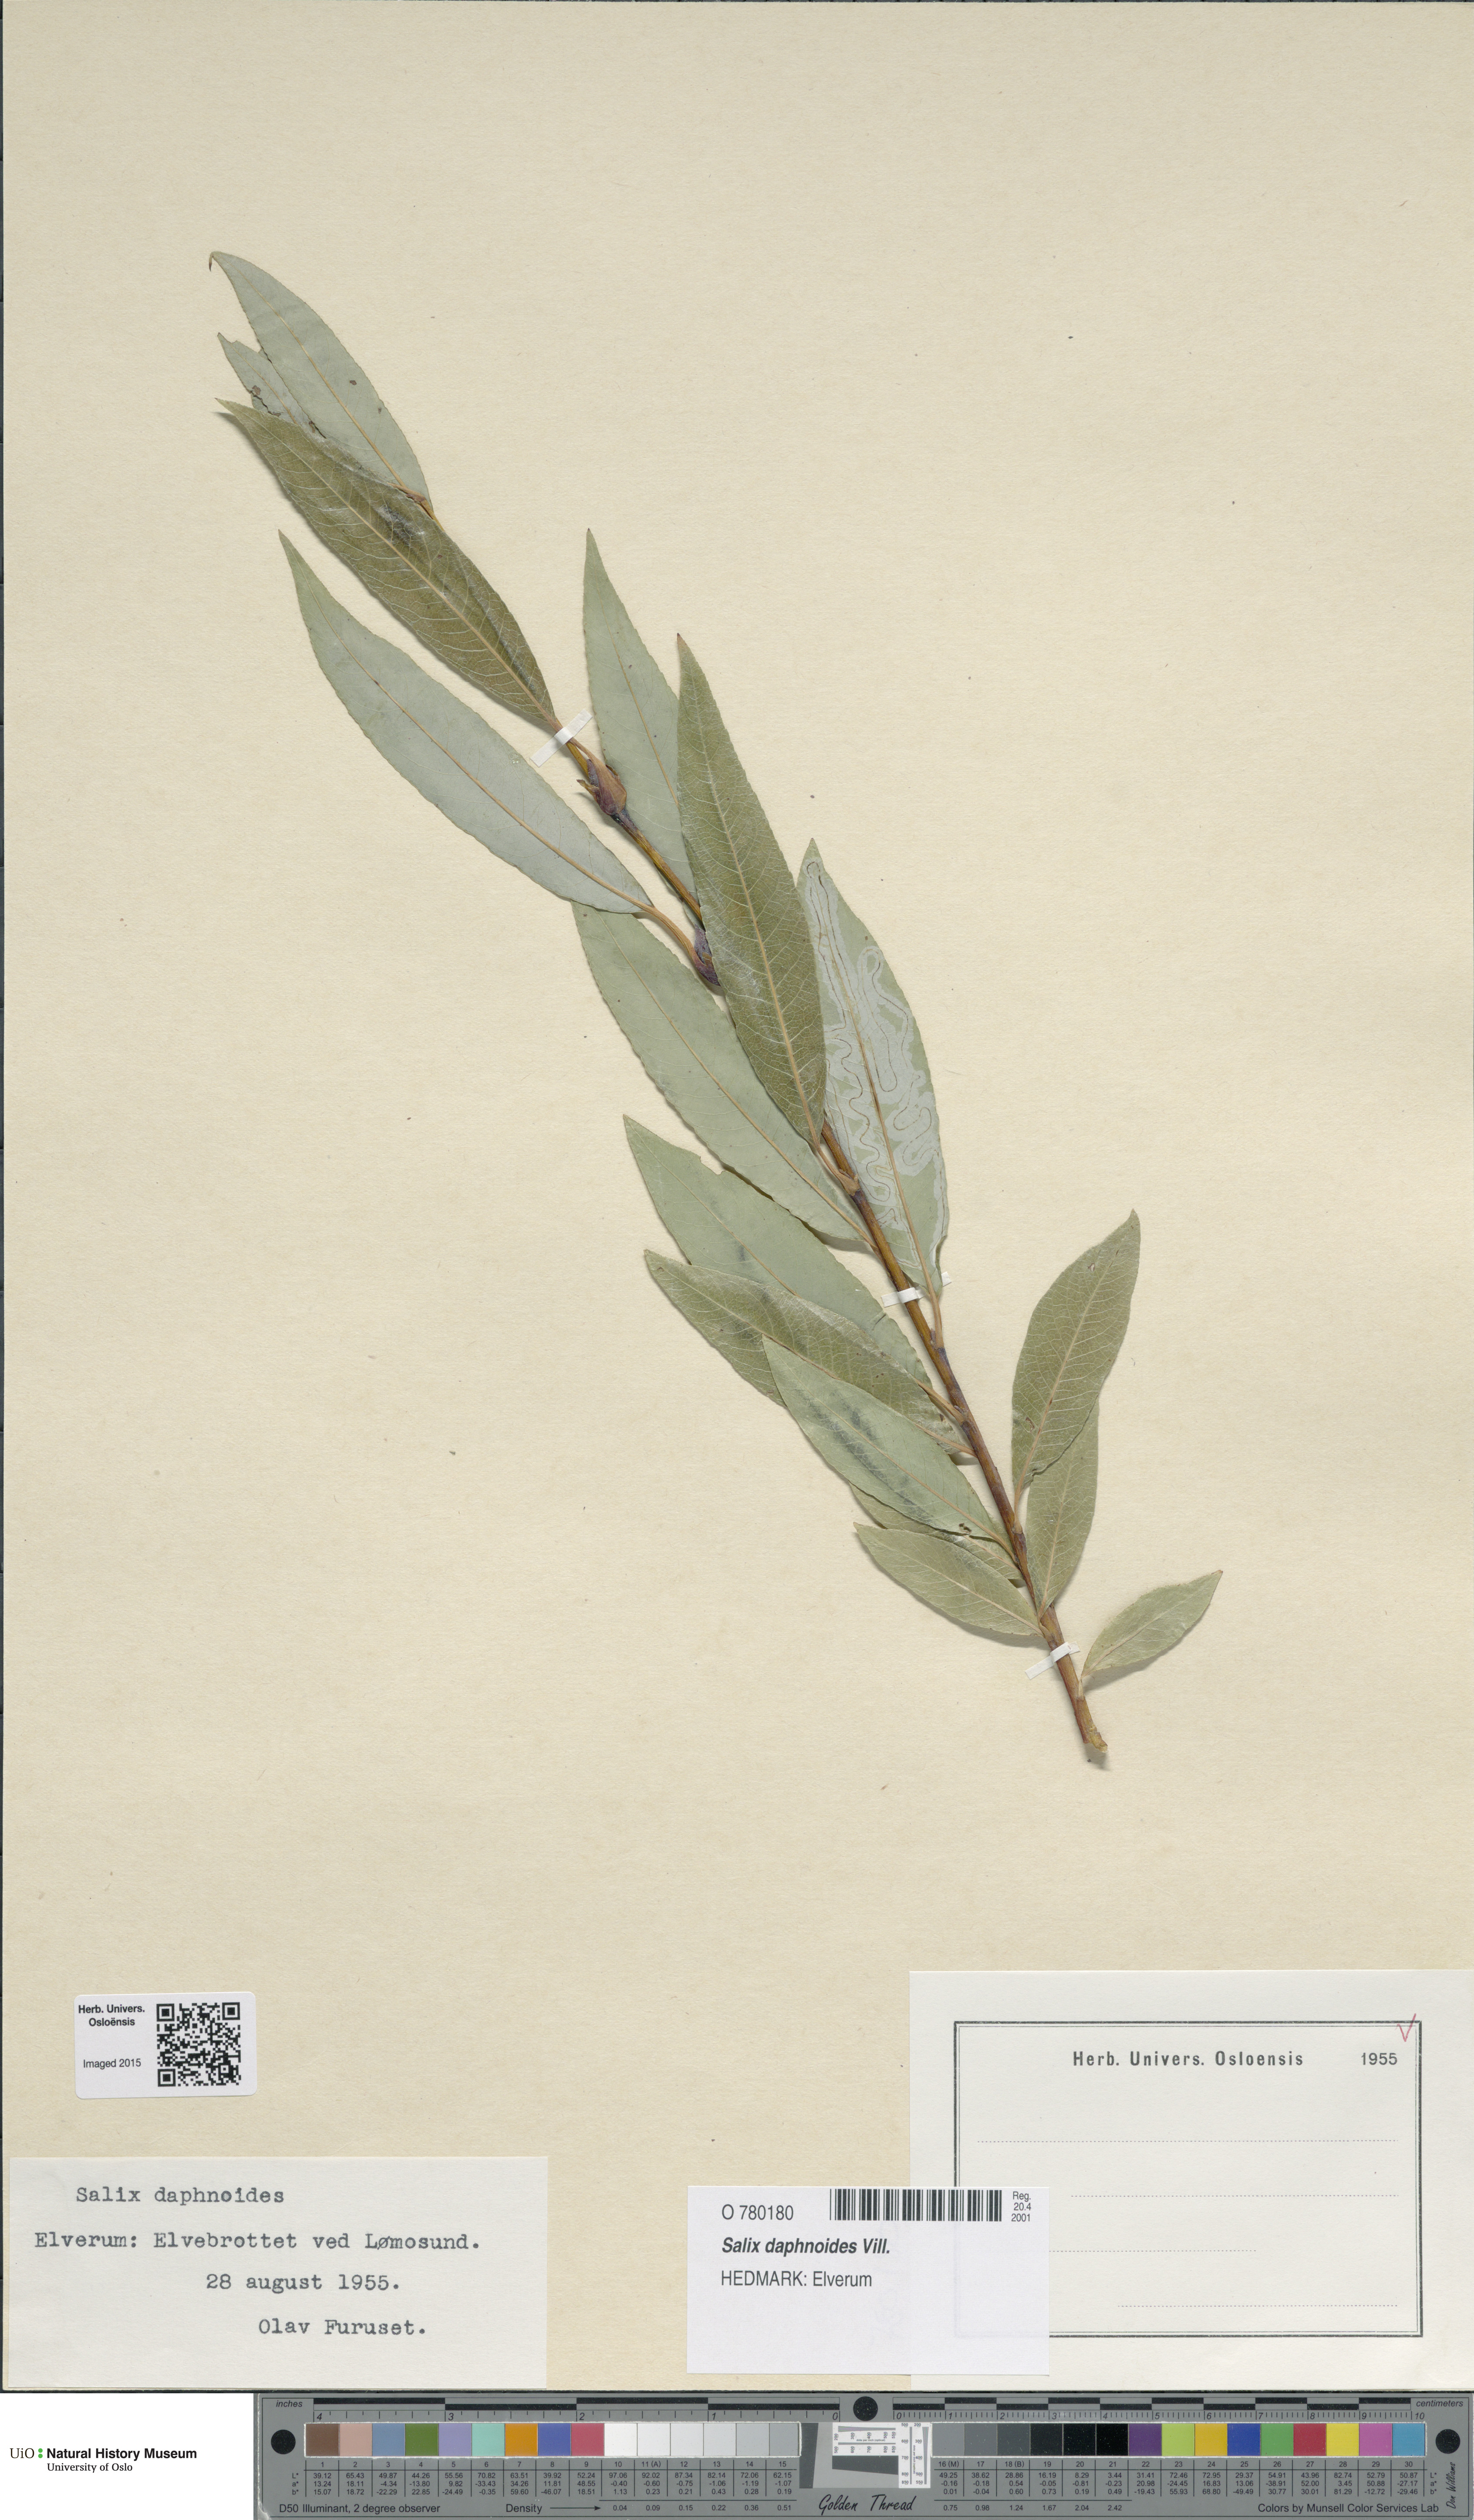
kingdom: Plantae
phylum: Tracheophyta
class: Magnoliopsida
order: Malpighiales
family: Salicaceae
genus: Salix
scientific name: Salix daphnoides
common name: European violet-willow
